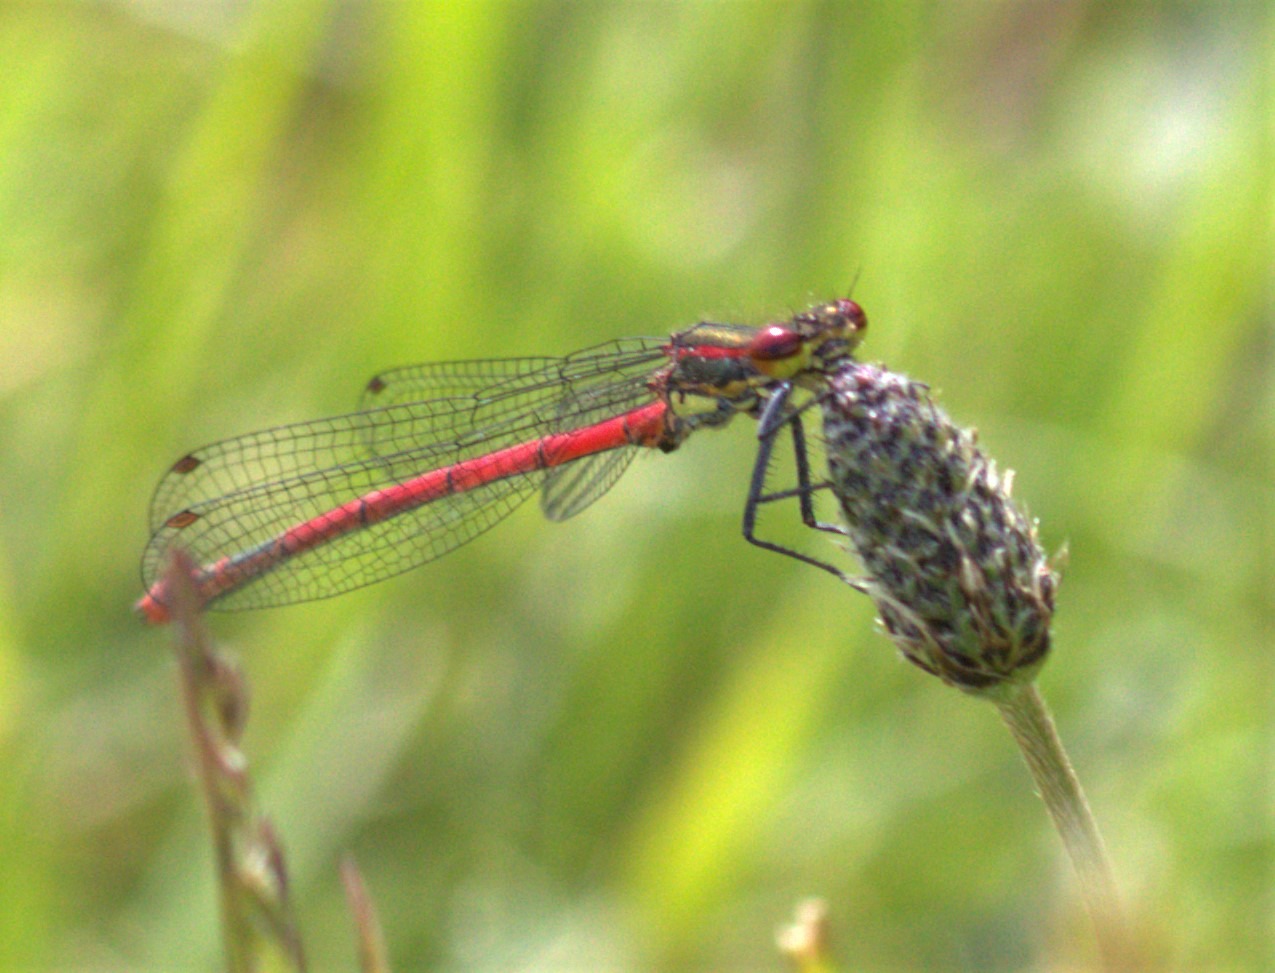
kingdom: Animalia
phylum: Arthropoda
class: Insecta
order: Odonata
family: Coenagrionidae
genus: Pyrrhosoma
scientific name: Pyrrhosoma nymphula
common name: Rød vandnymfe
